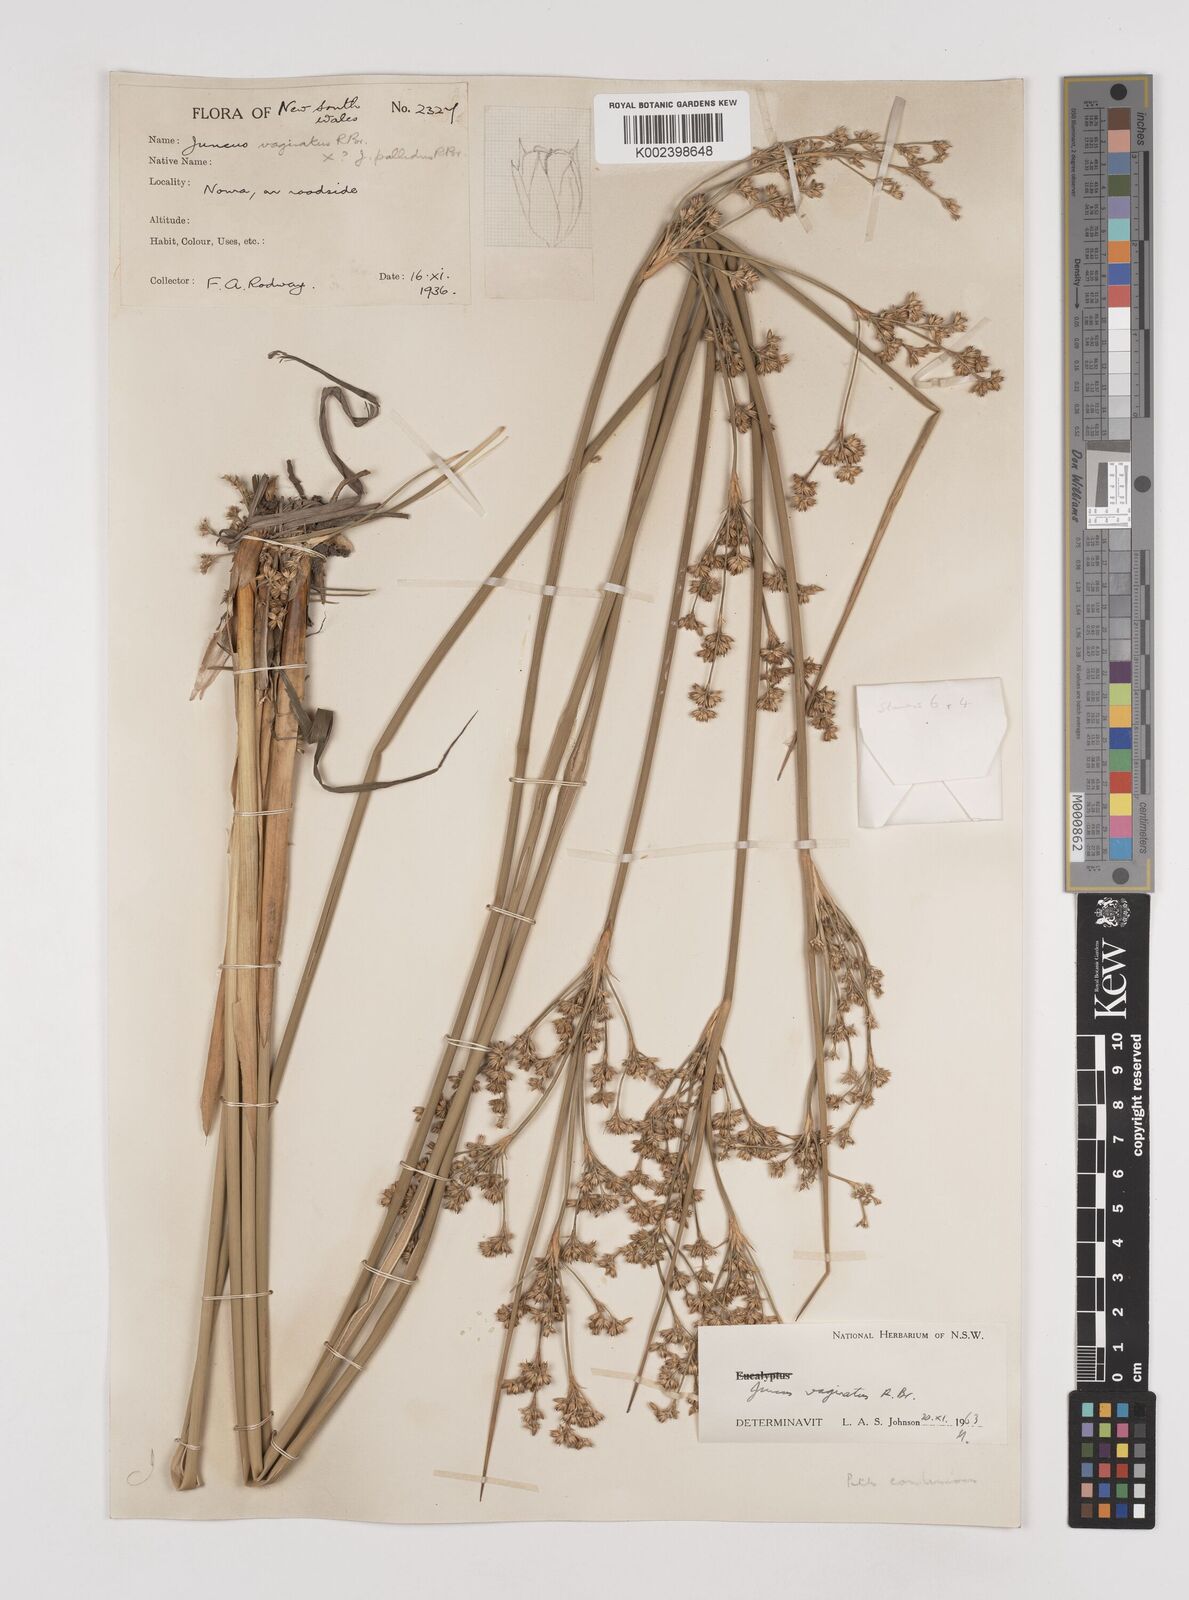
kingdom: Plantae
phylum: Tracheophyta
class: Liliopsida
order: Poales
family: Juncaceae
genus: Juncus
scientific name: Juncus vaginatus
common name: Clustered rush
